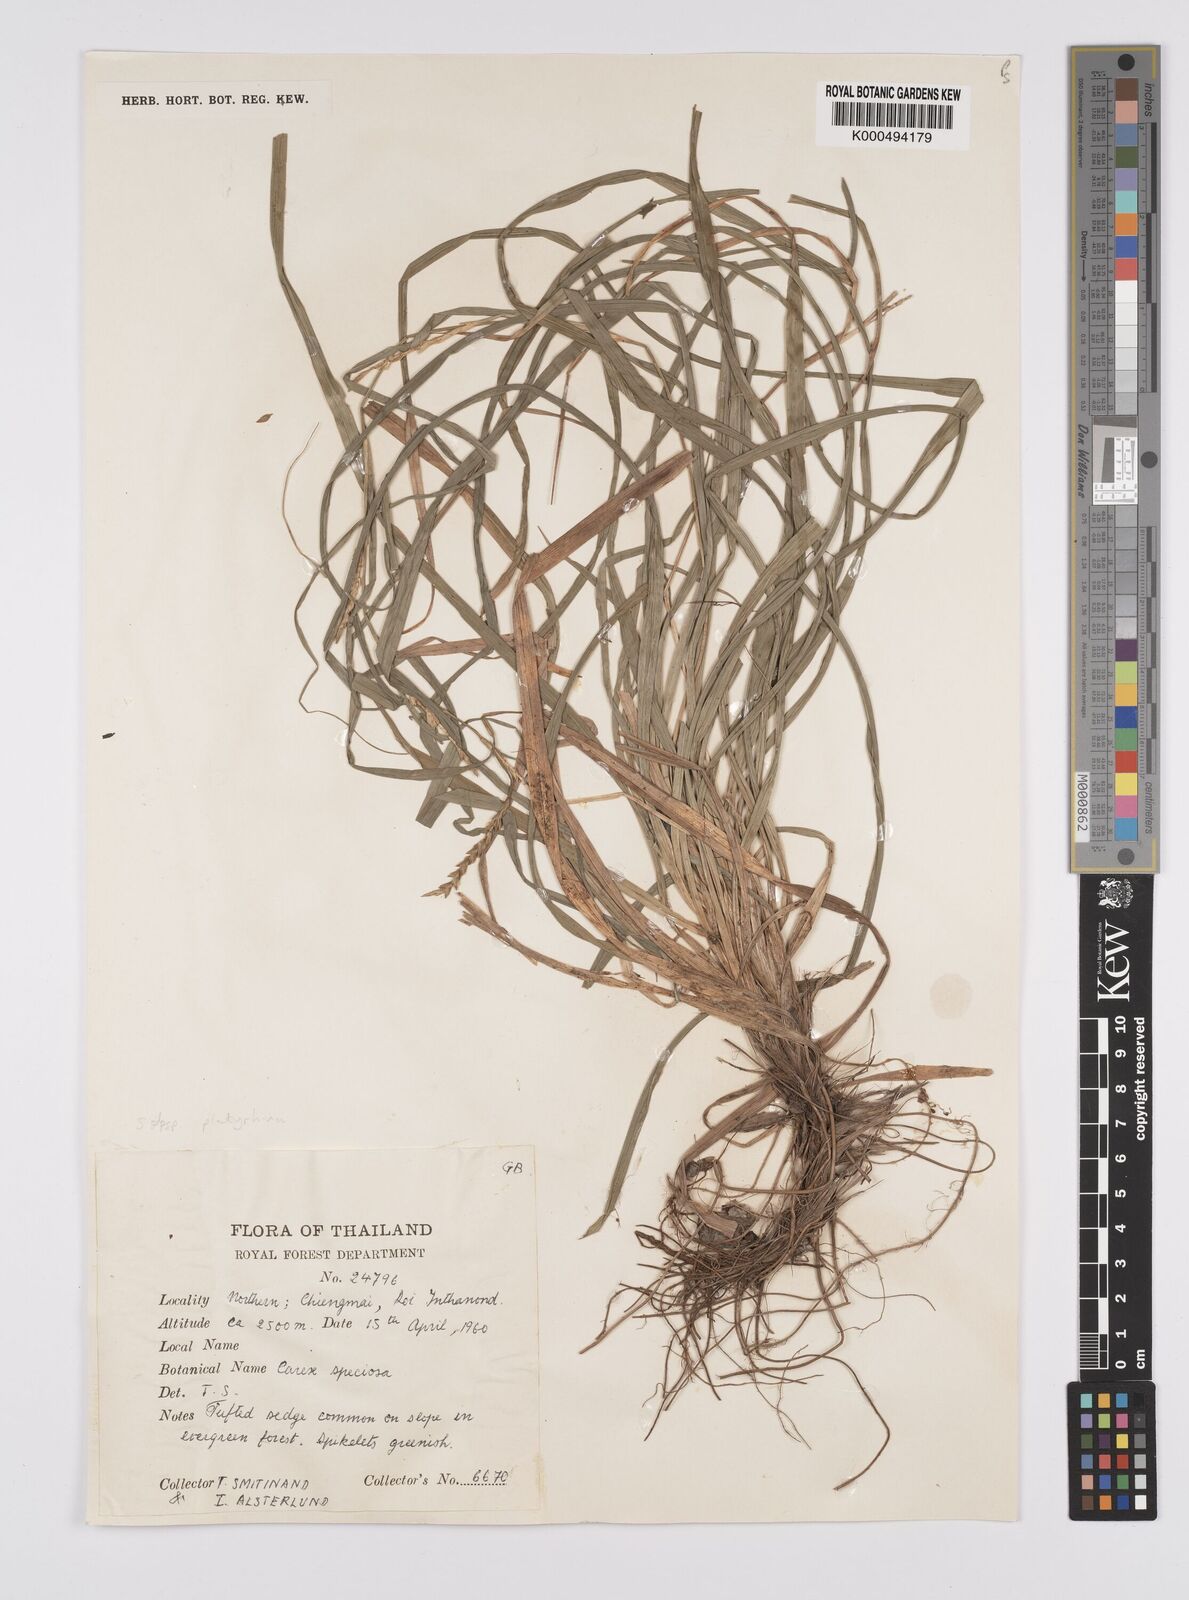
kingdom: Plantae
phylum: Tracheophyta
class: Liliopsida
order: Poales
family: Cyperaceae
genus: Carex
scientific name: Carex speciosa
